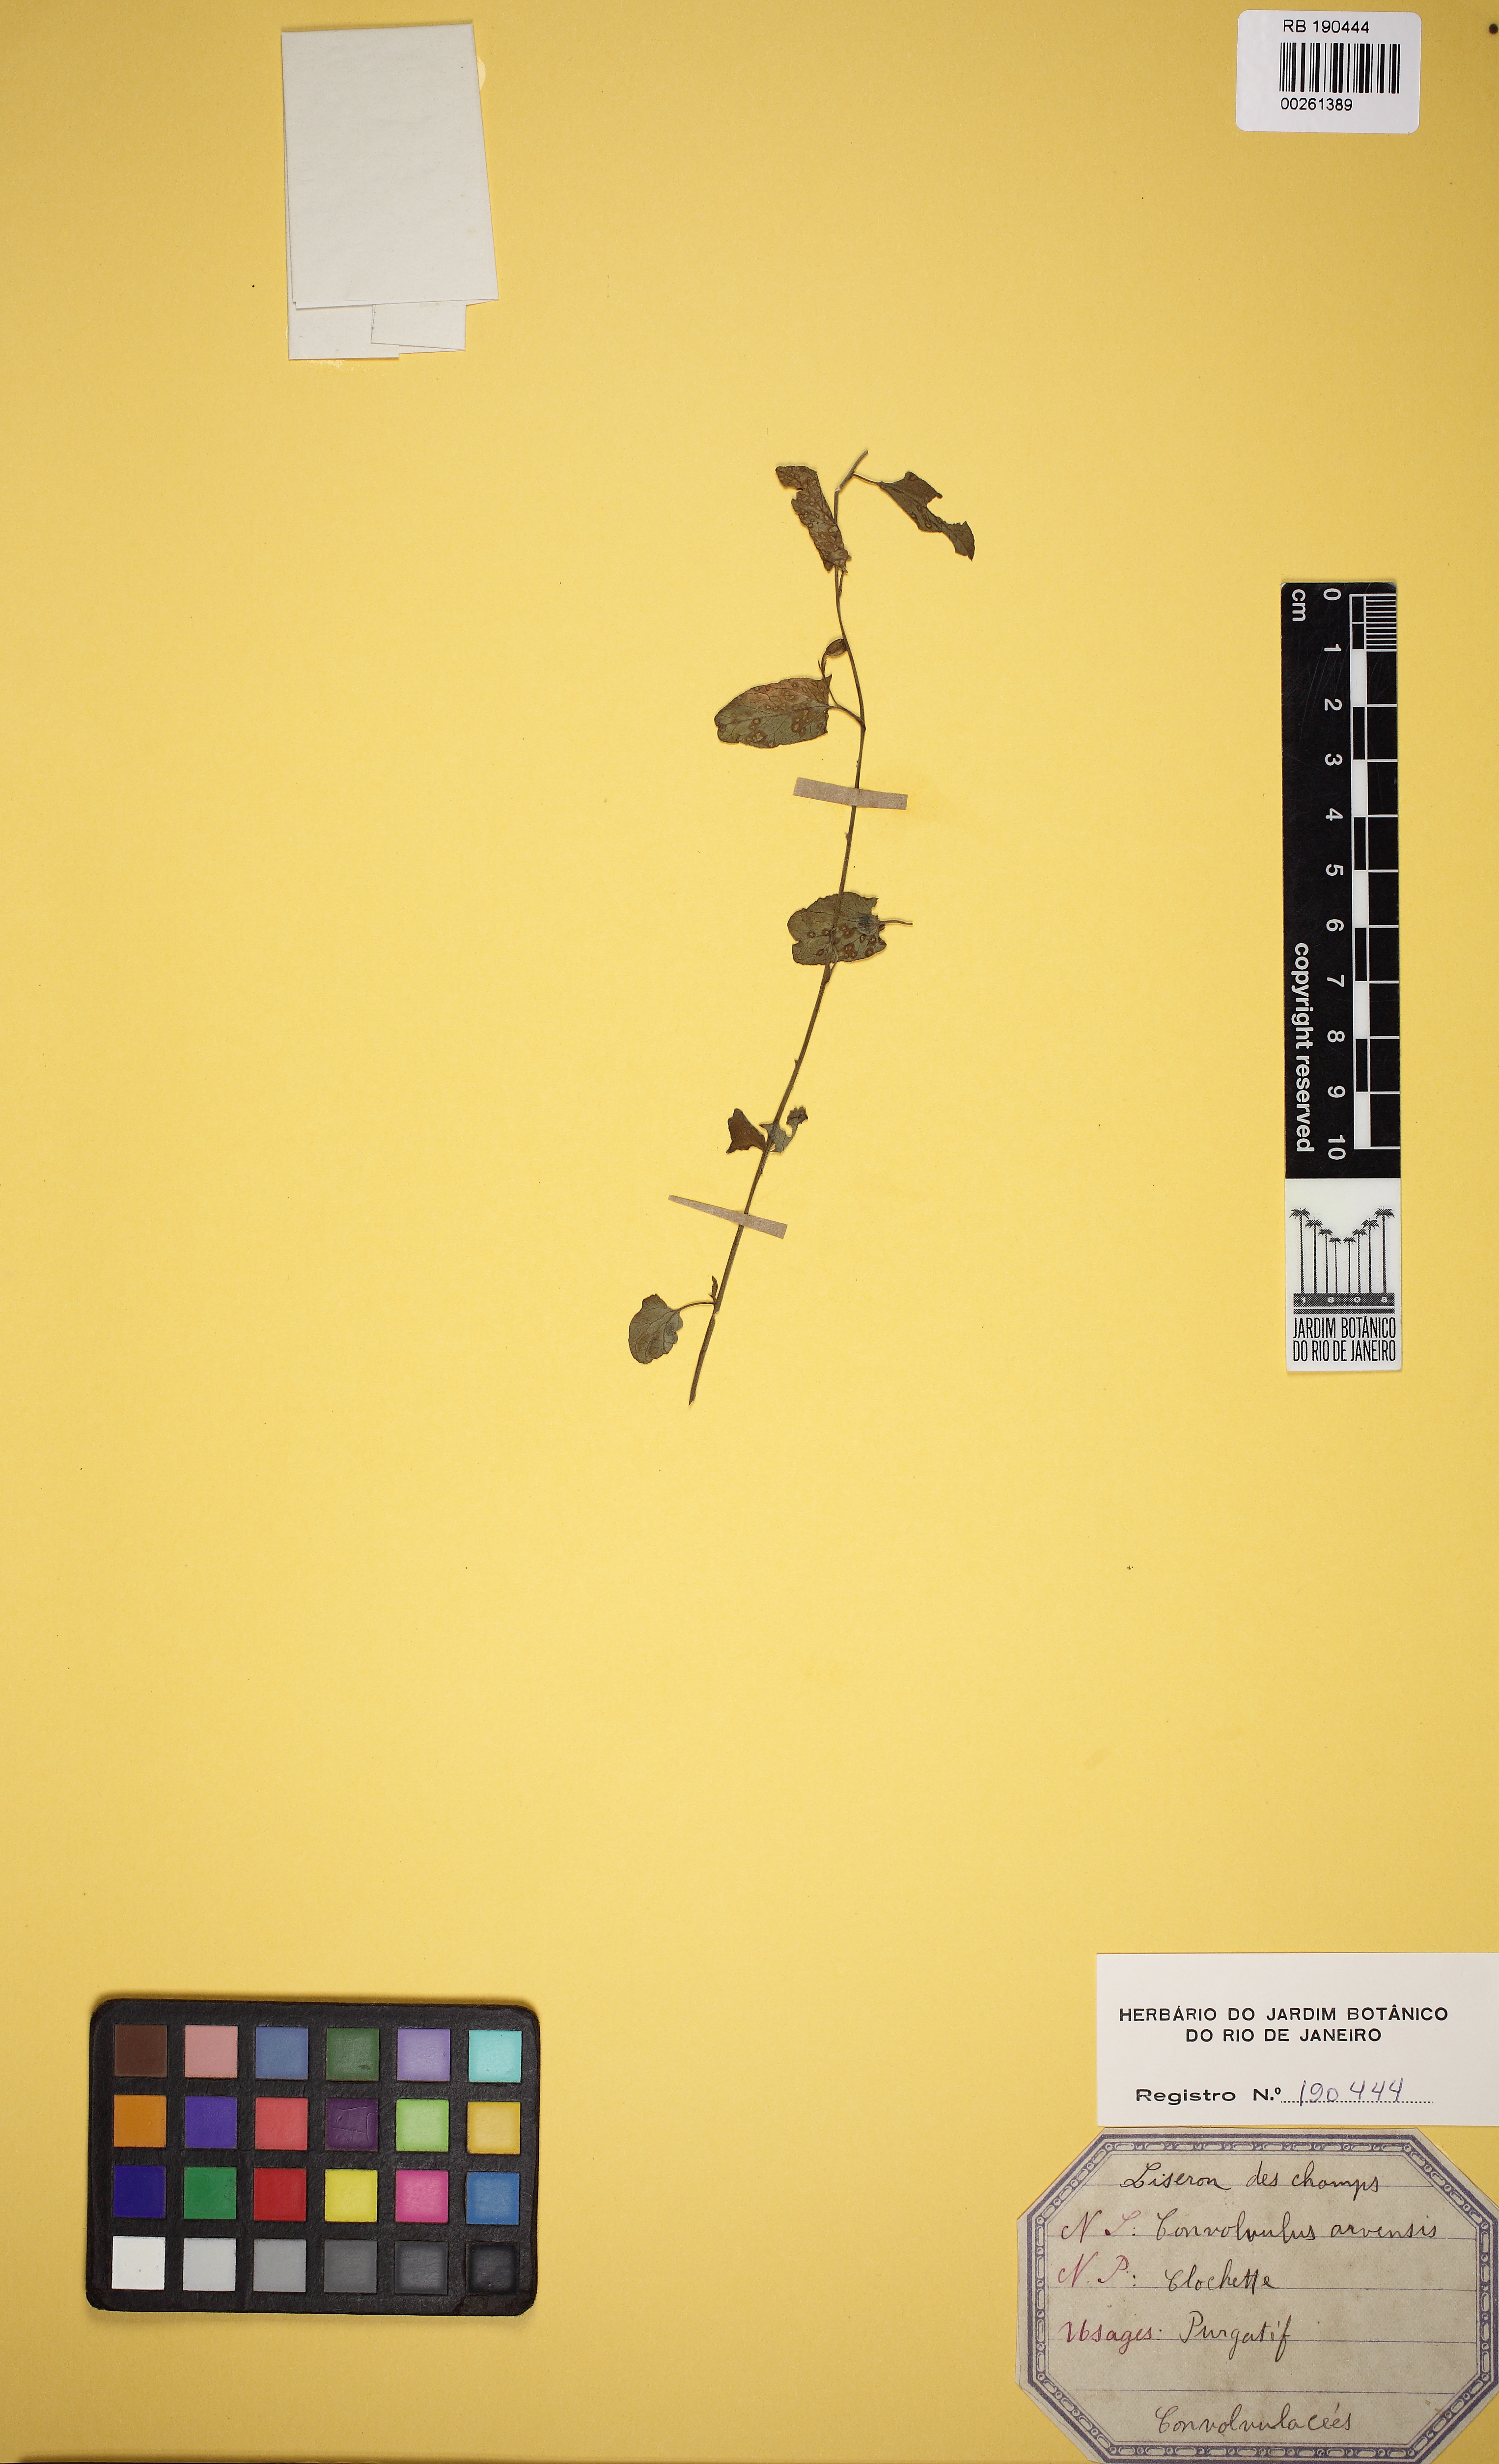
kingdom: Plantae
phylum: Tracheophyta
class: Magnoliopsida
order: Solanales
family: Convolvulaceae
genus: Convolvulus
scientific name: Convolvulus arvensis
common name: Field bindweed
